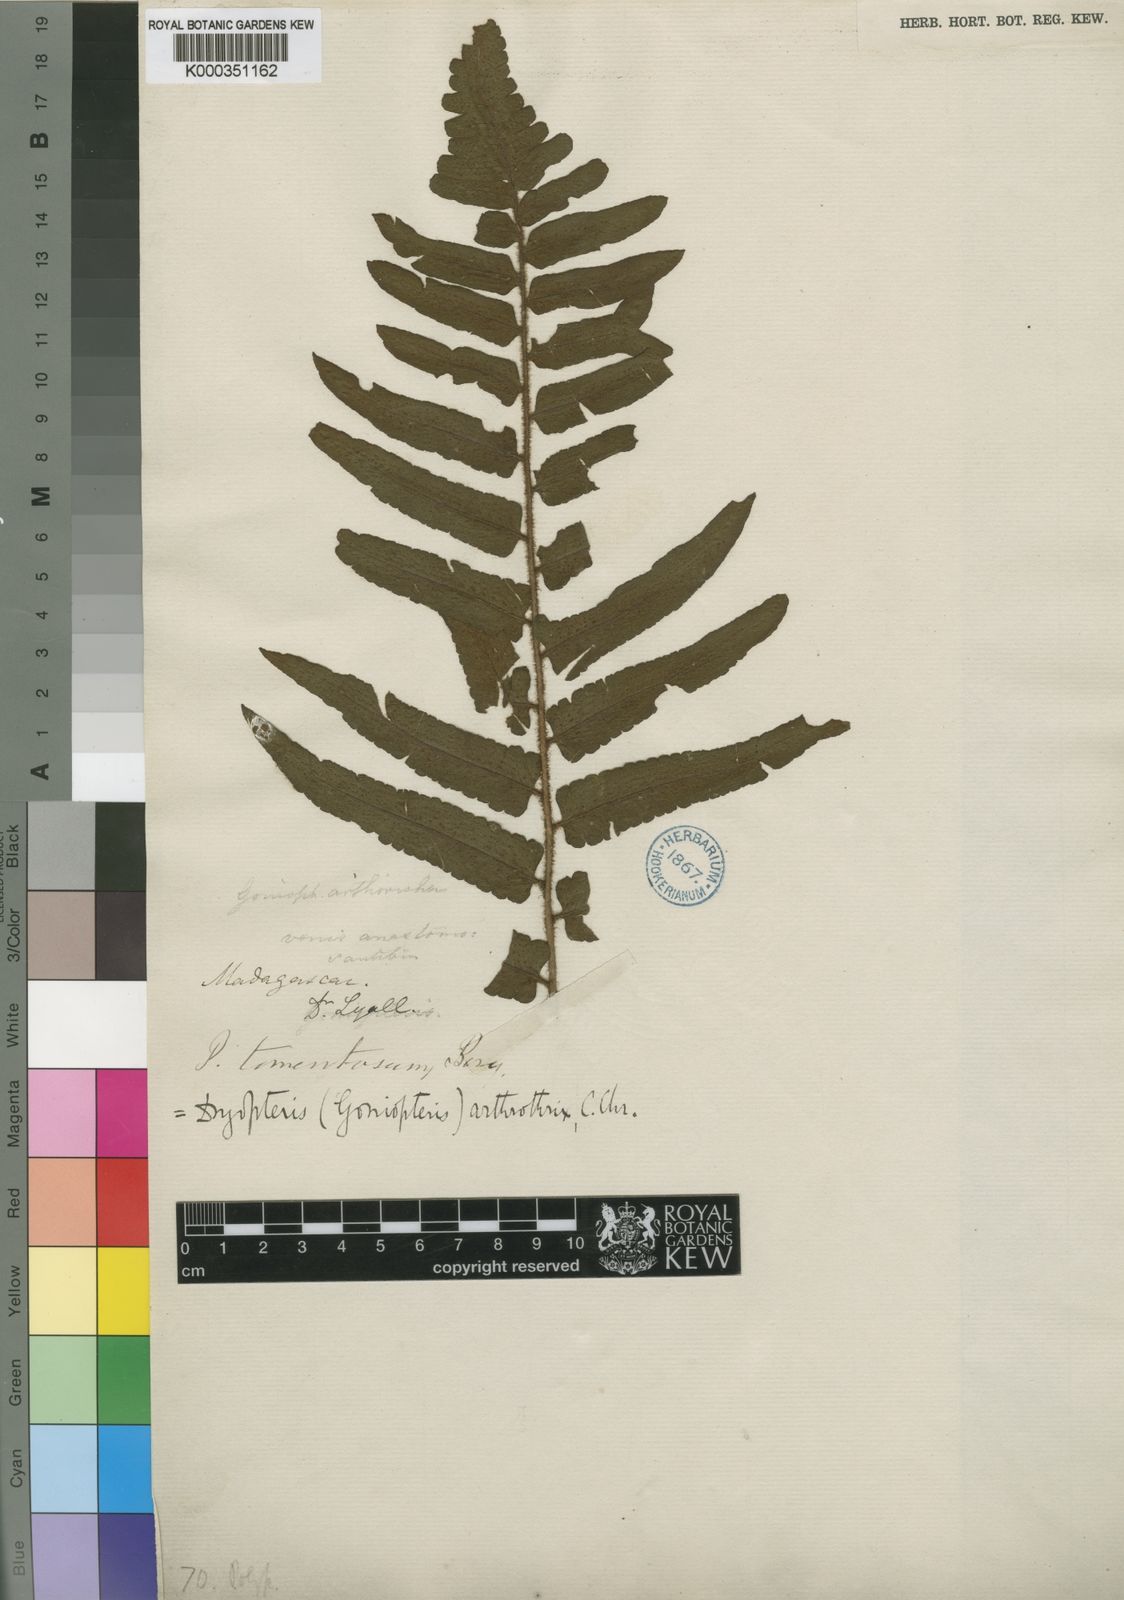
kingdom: Plantae
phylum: Tracheophyta
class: Polypodiopsida
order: Polypodiales
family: Dryopteridaceae
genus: Ctenitis
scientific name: Ctenitis arthrothrix
